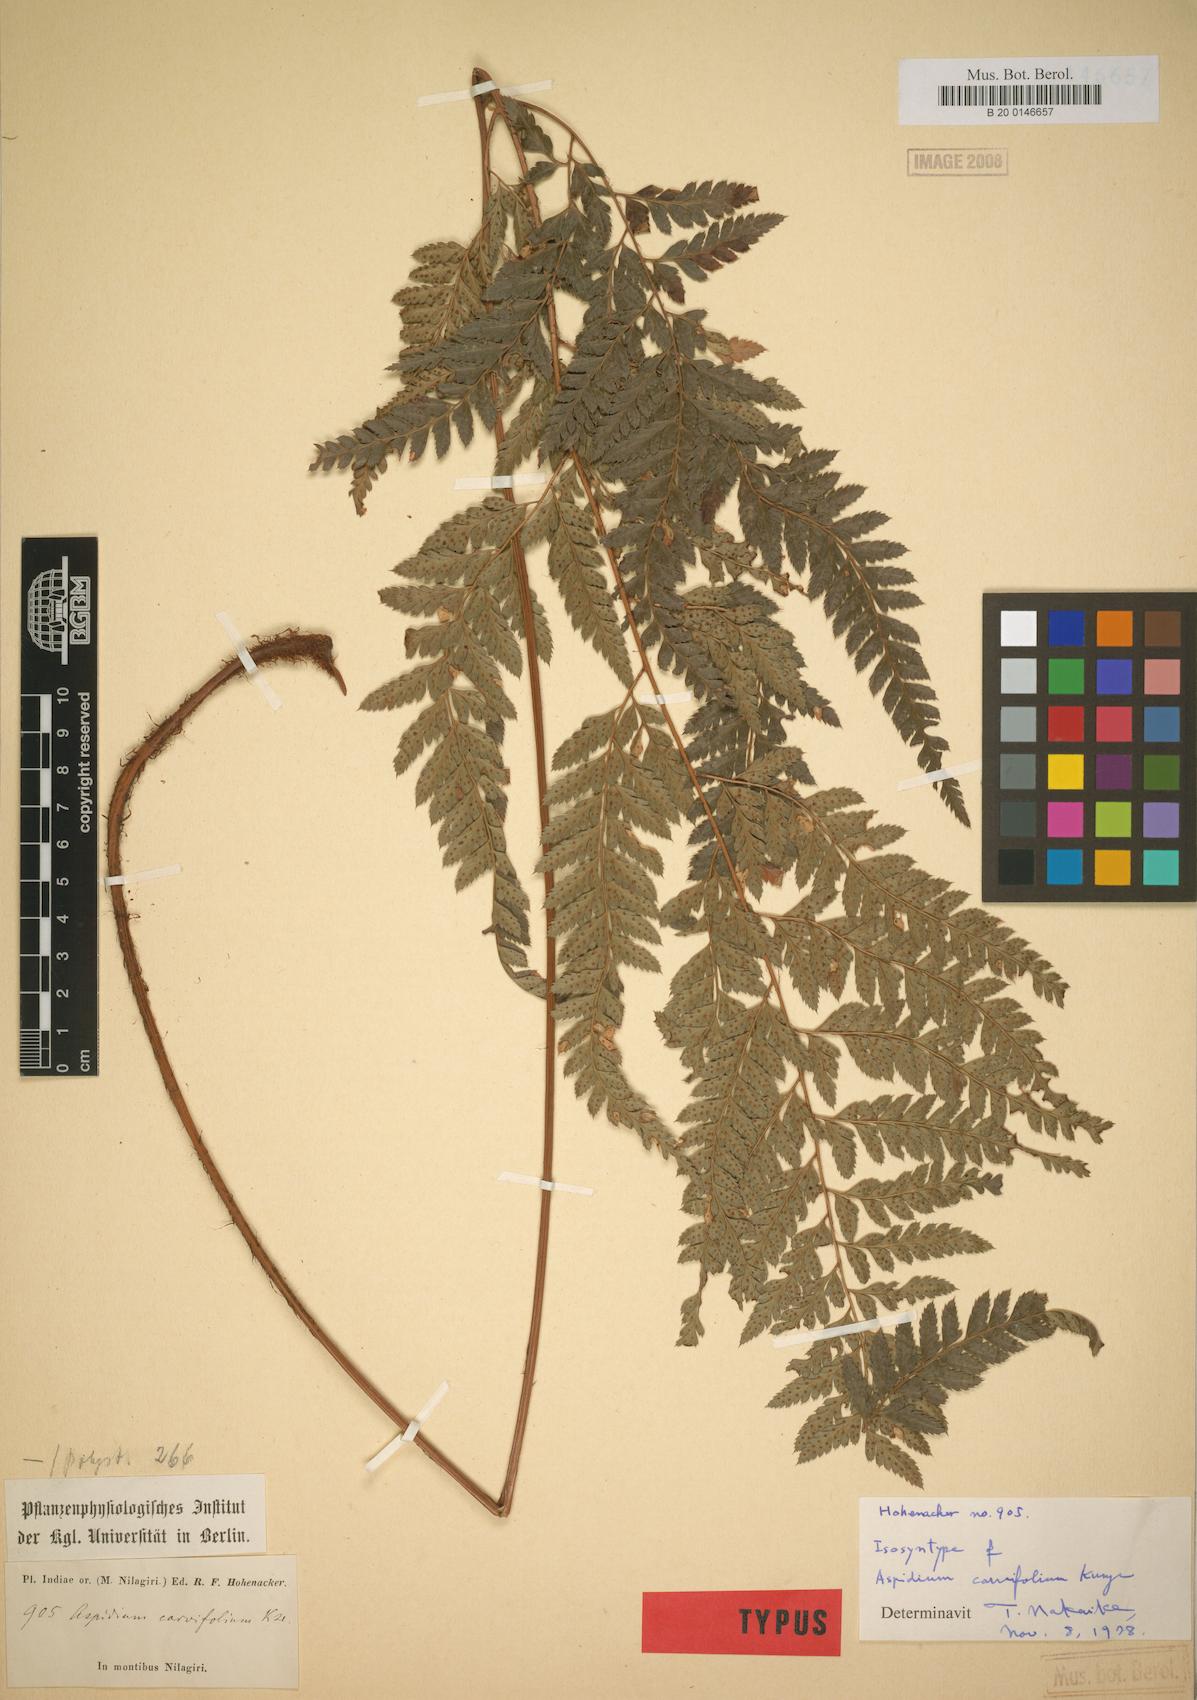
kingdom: Plantae
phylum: Tracheophyta
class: Polypodiopsida
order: Polypodiales
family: Dryopteridaceae
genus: Arachniodes
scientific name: Arachniodes carvifolia
